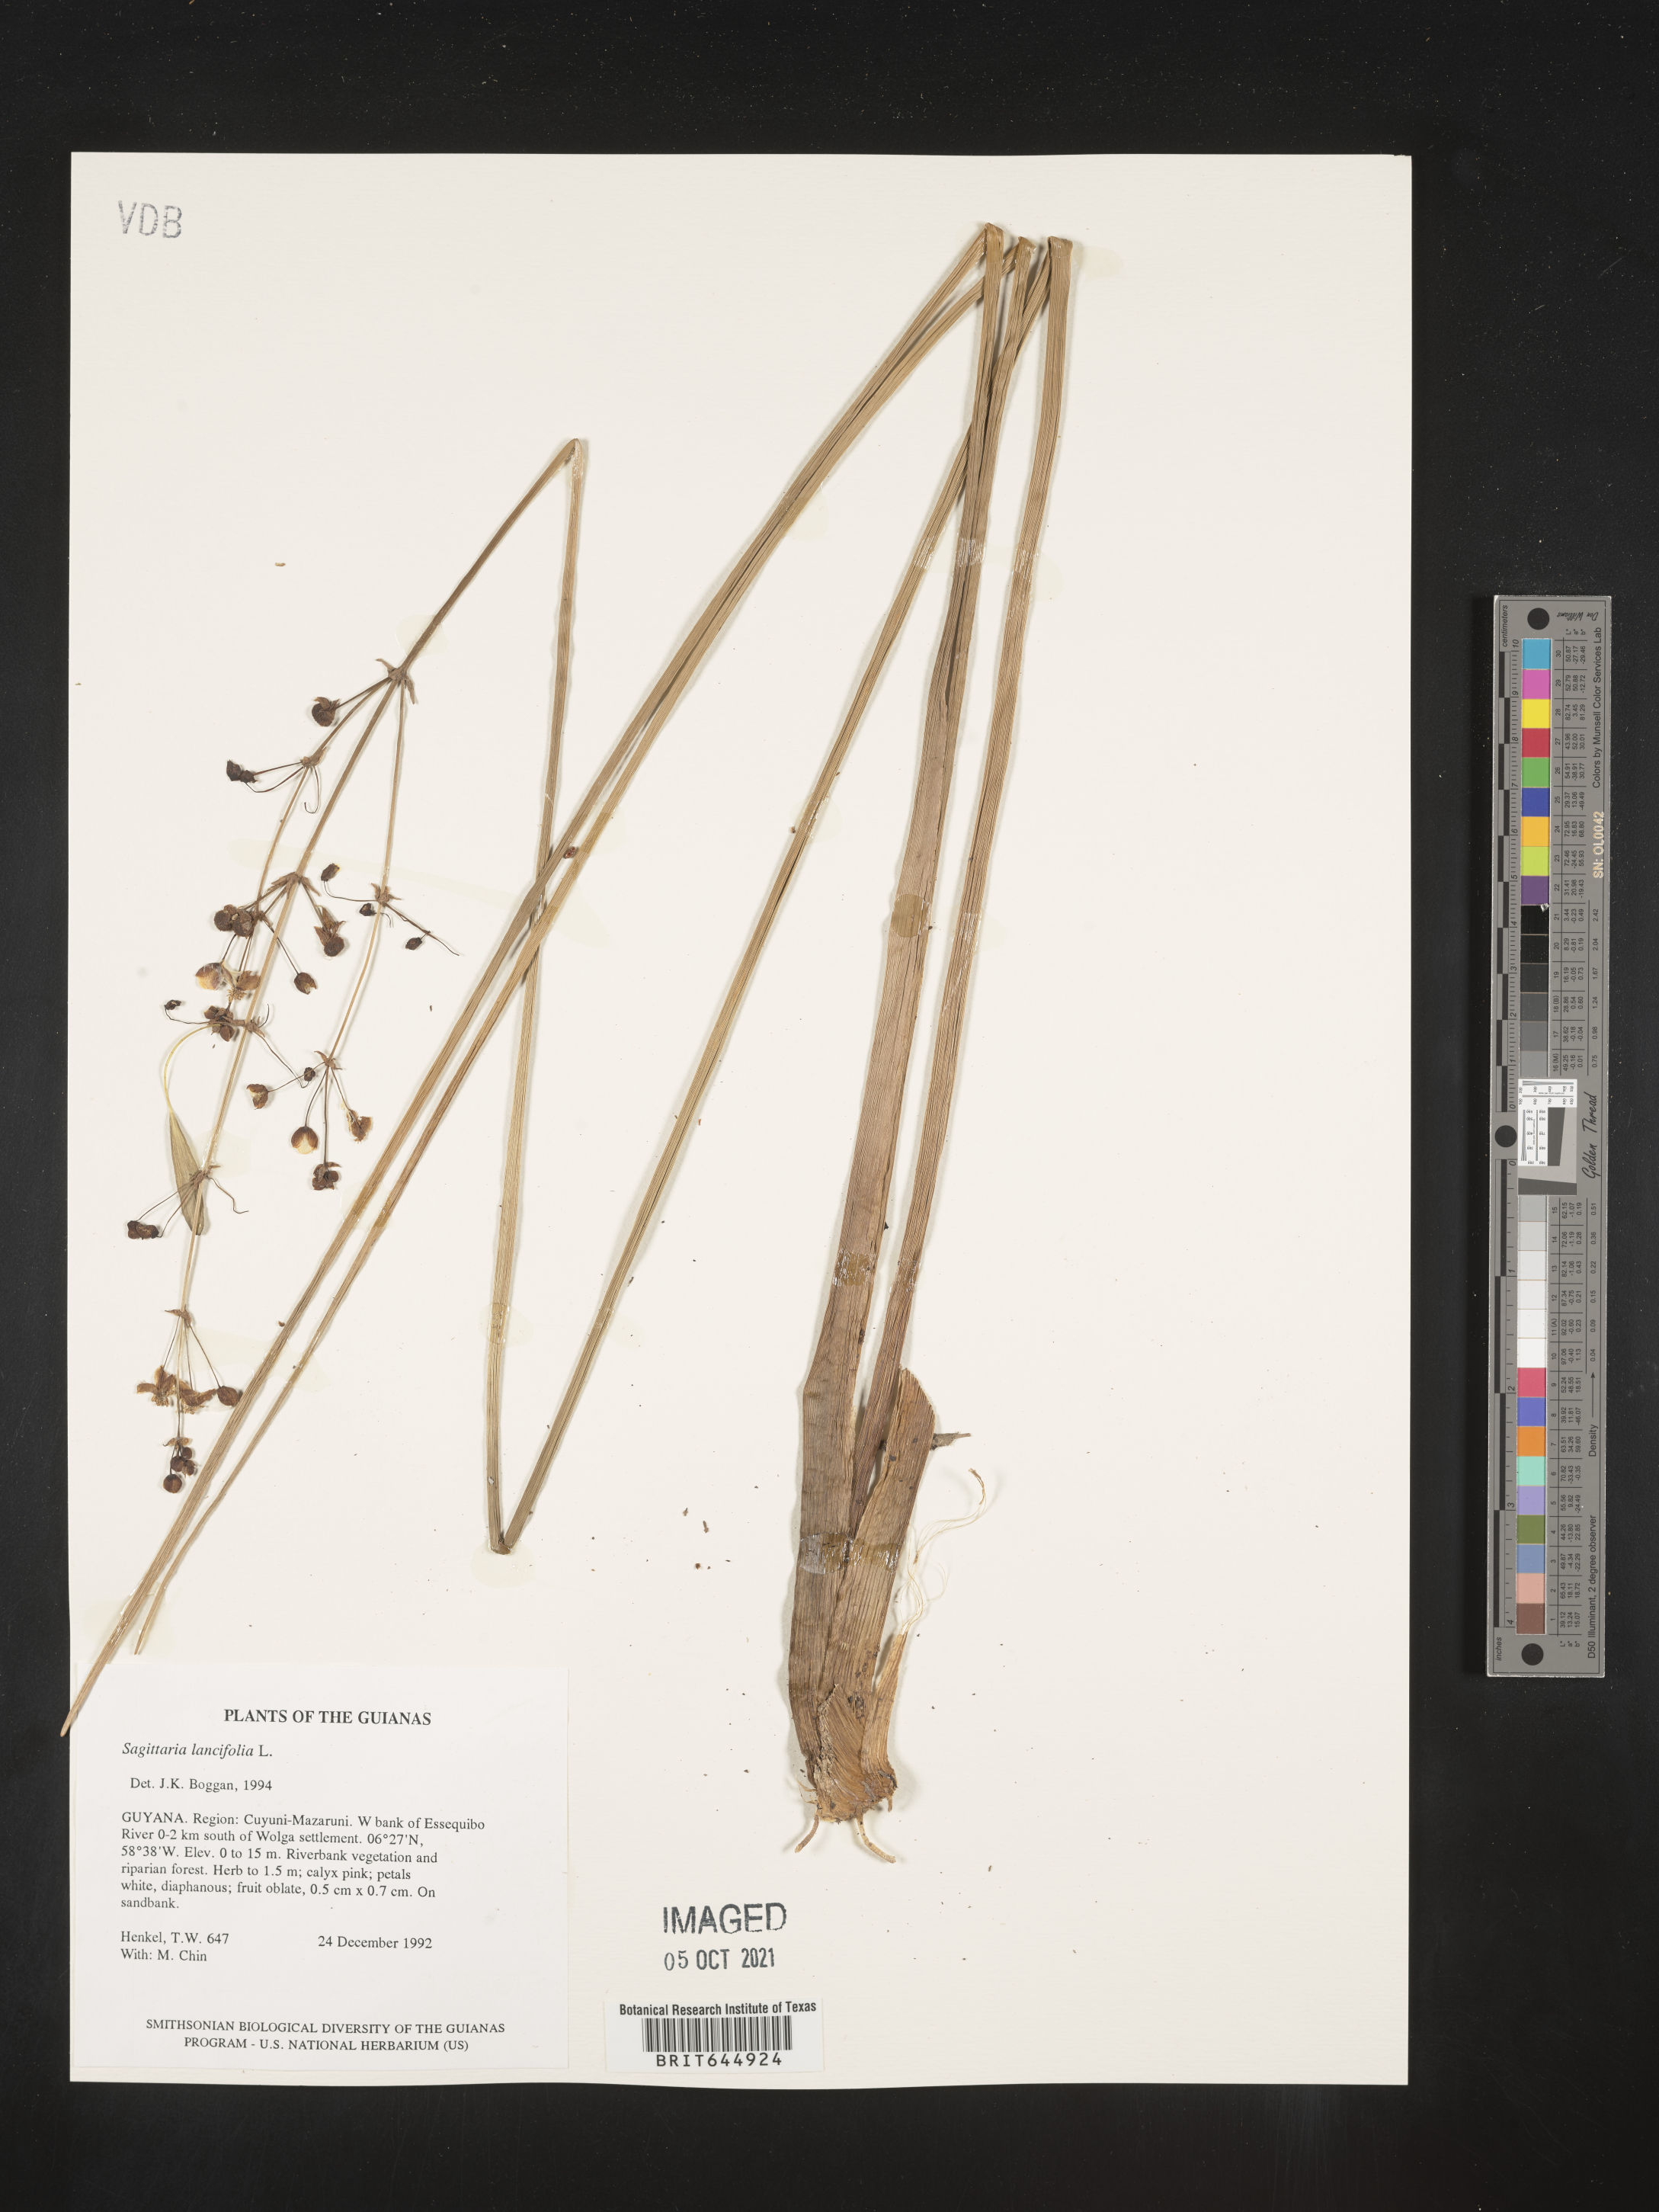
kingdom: Plantae
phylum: Tracheophyta
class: Liliopsida
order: Alismatales
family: Alismataceae
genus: Sagittaria
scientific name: Sagittaria lancifolia
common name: Lance-leaf arrowhead
